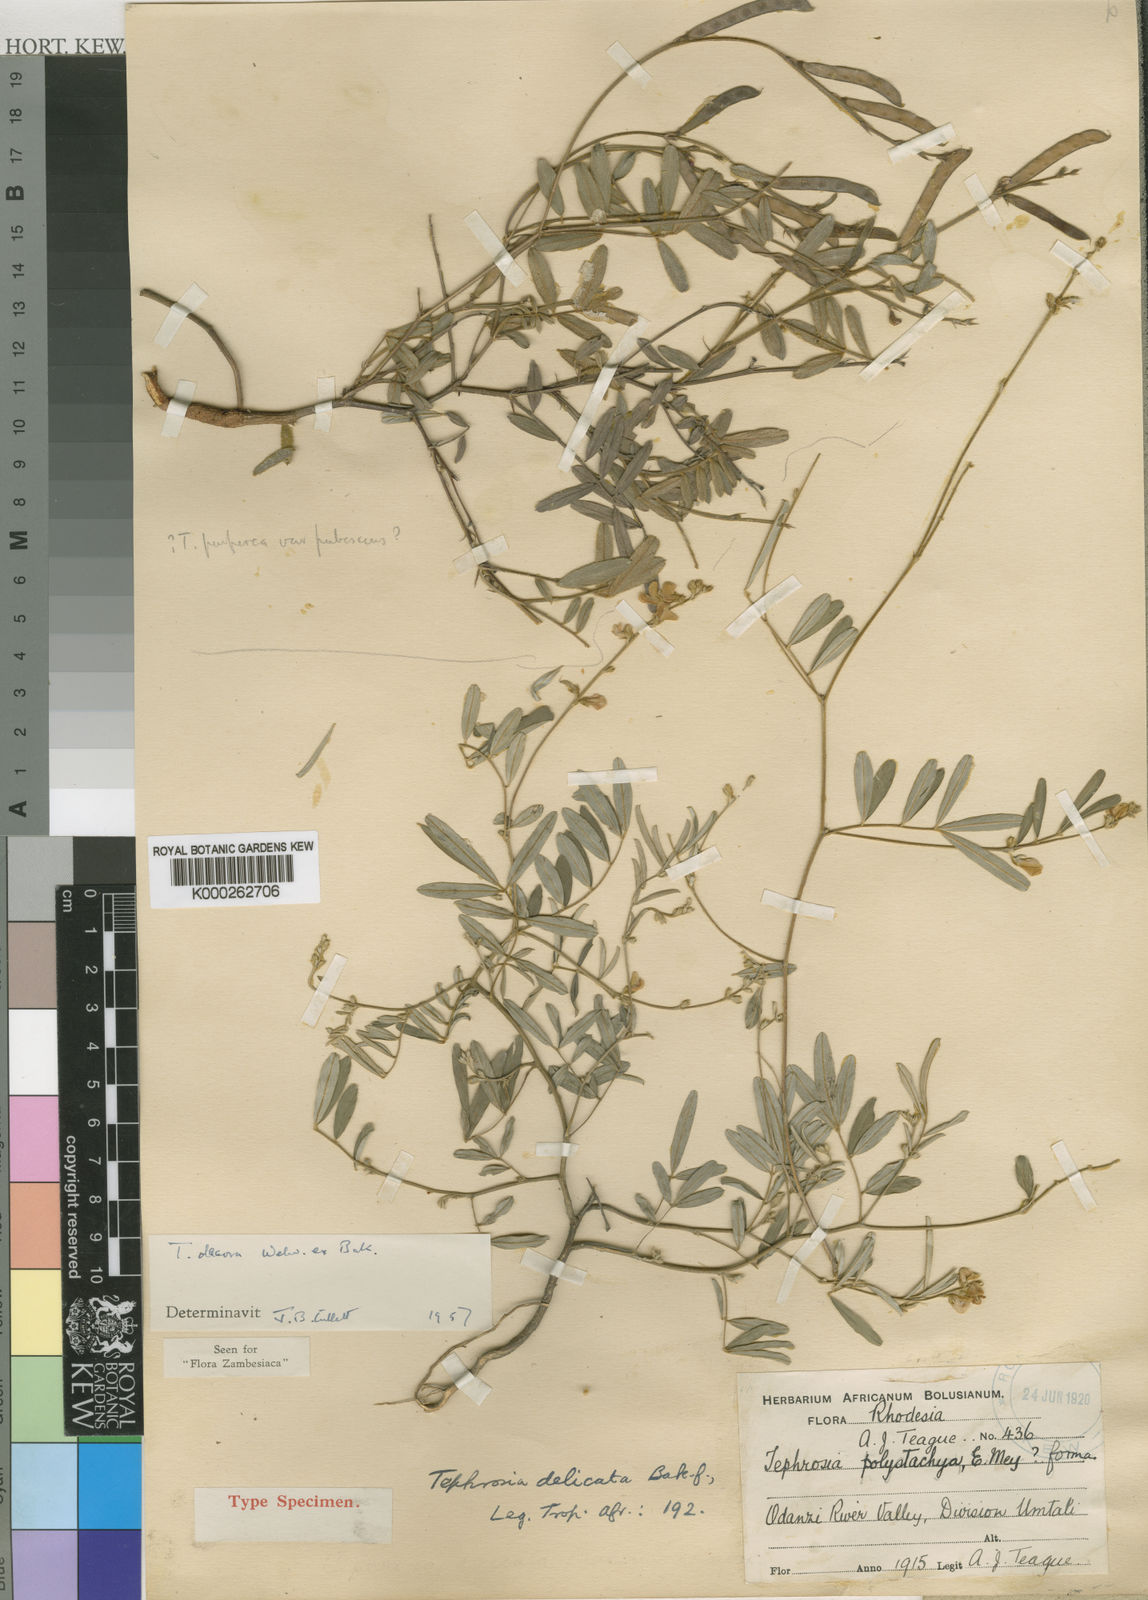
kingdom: Plantae
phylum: Tracheophyta
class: Magnoliopsida
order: Fabales
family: Fabaceae
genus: Tephrosia
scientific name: Tephrosia polystachya
